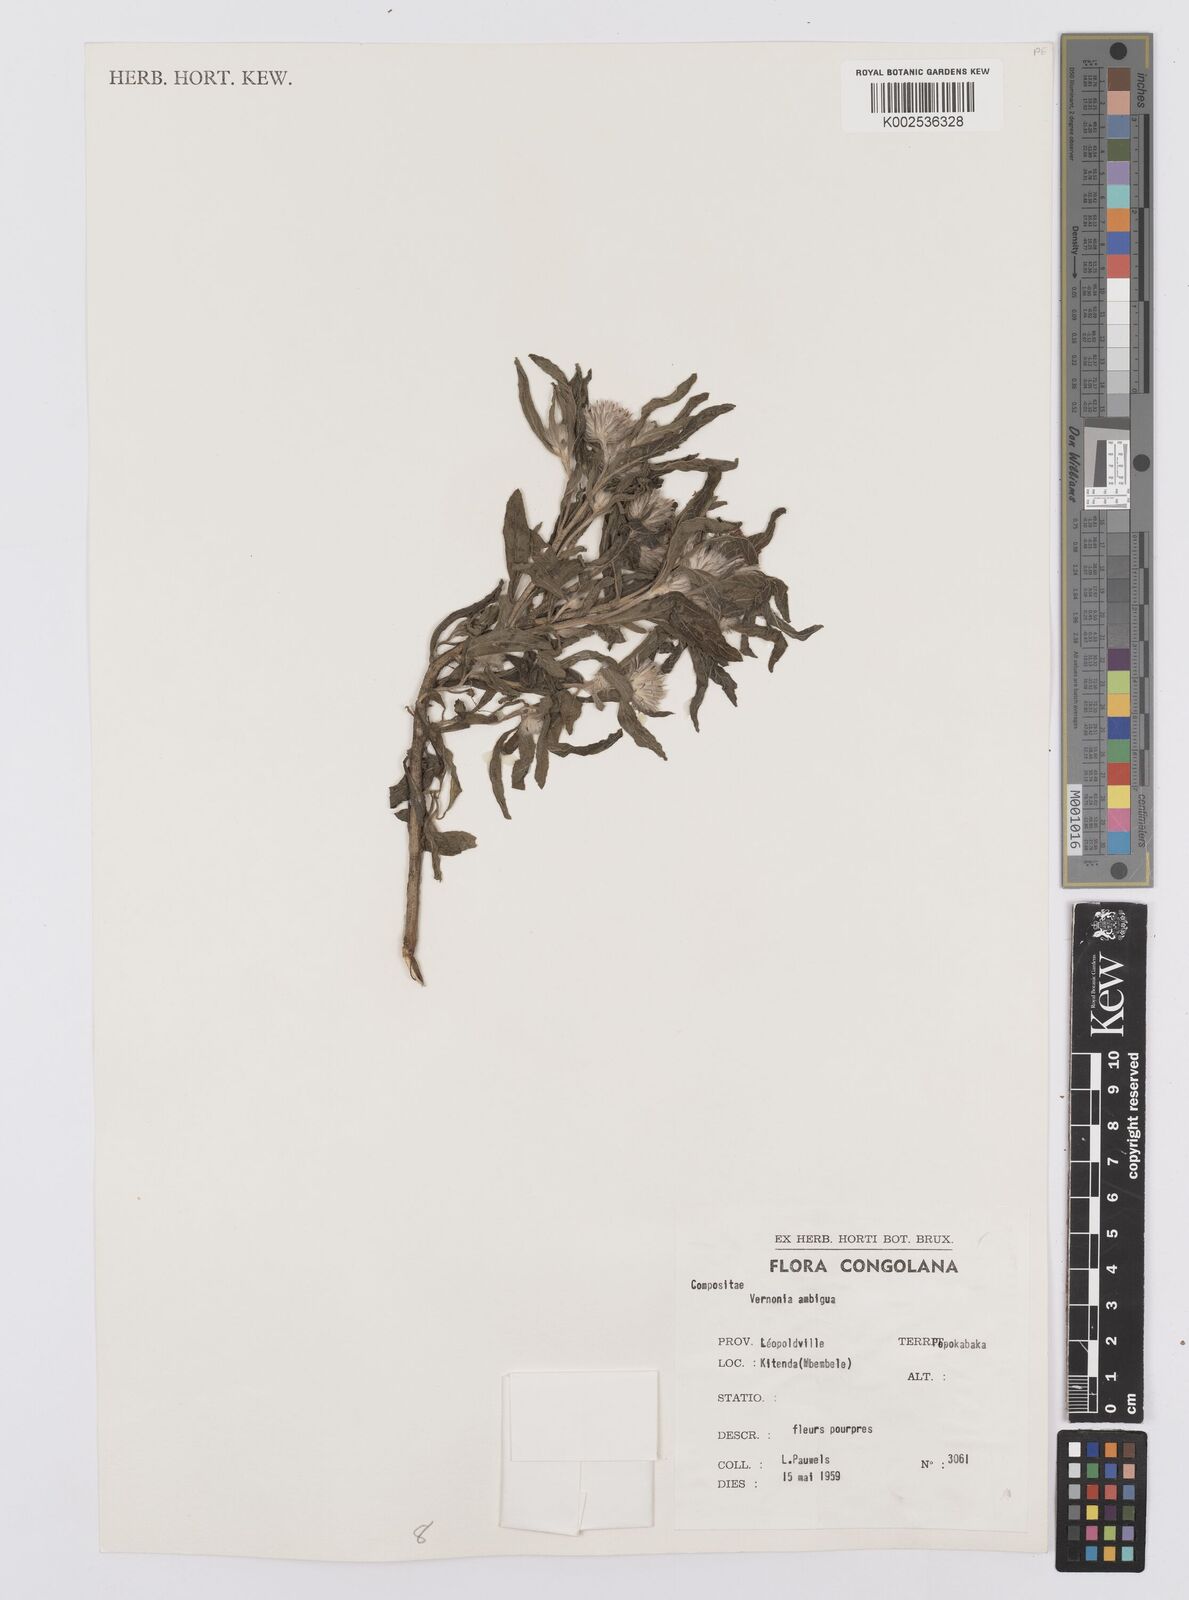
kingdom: Plantae
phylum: Tracheophyta
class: Magnoliopsida
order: Asterales
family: Asteraceae
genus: Vernoniastrum
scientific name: Vernoniastrum ambiguum
